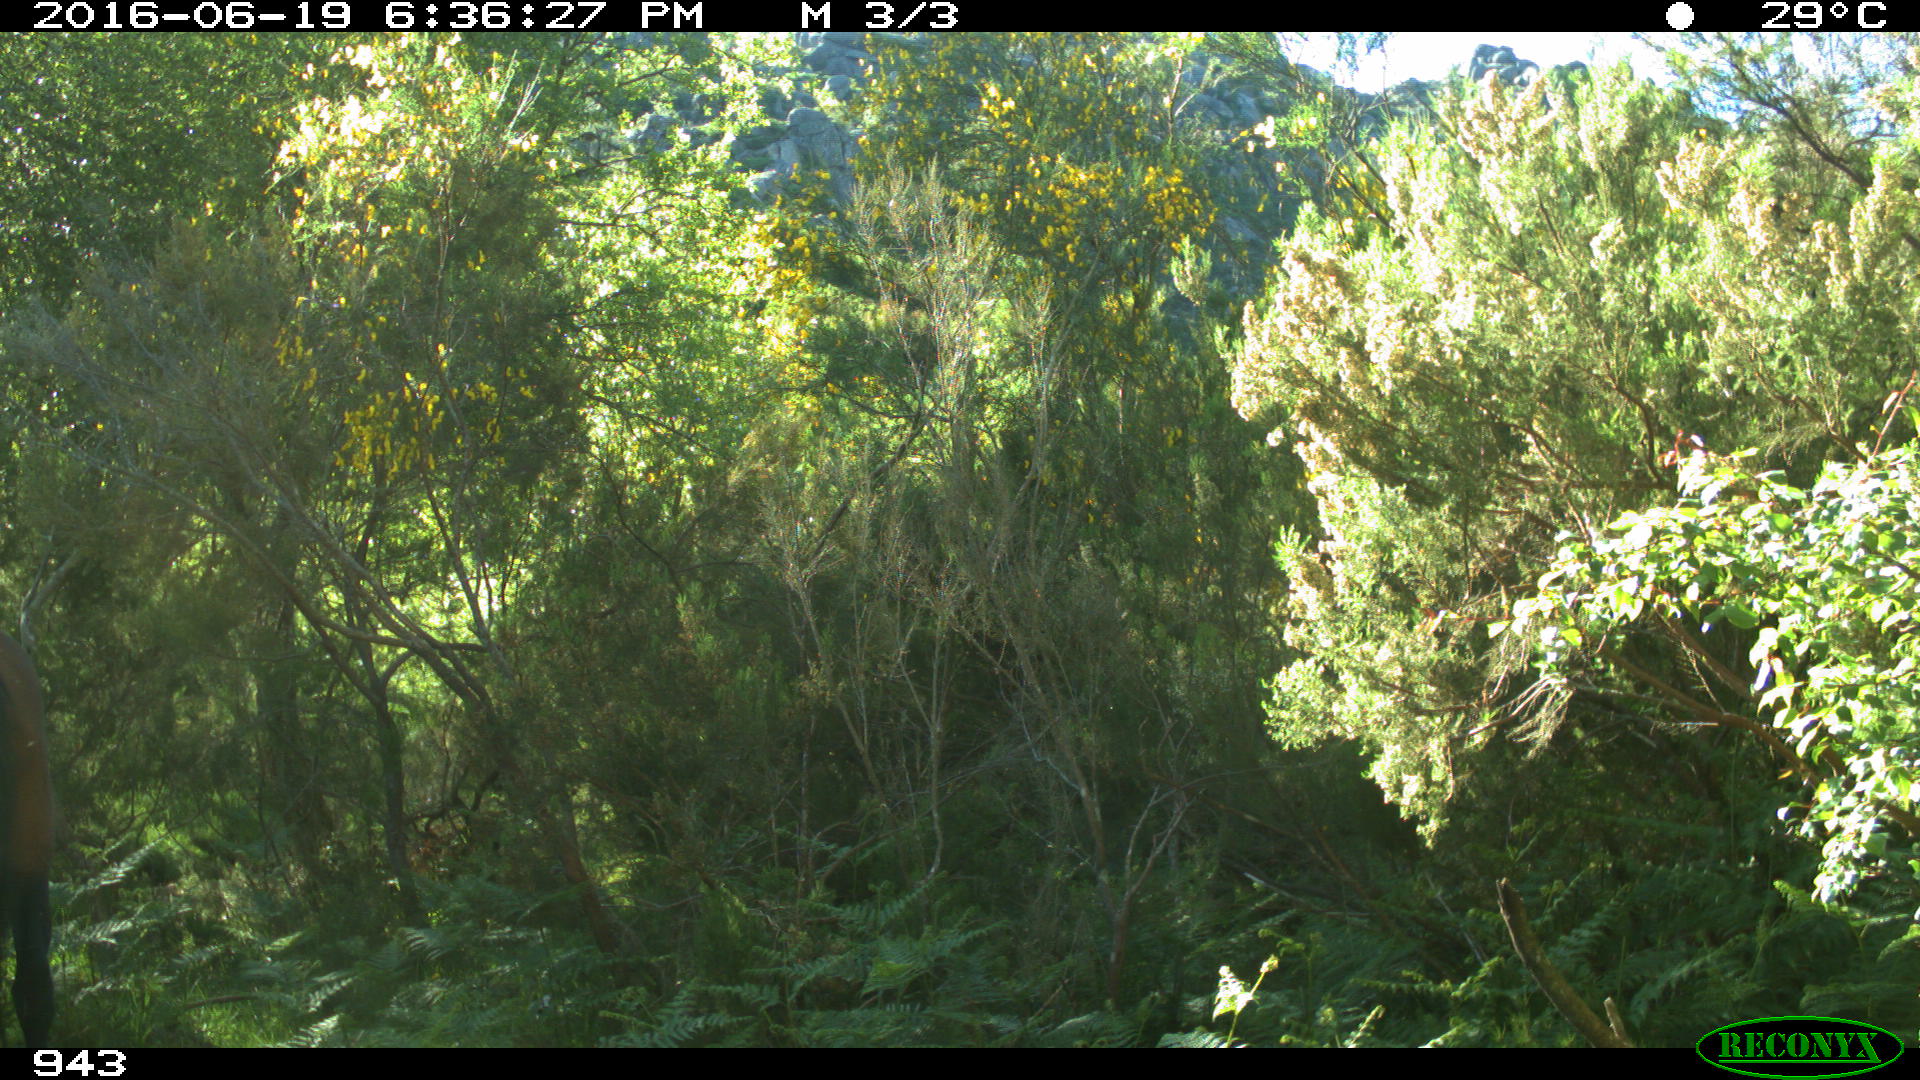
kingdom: Animalia
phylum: Chordata
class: Mammalia
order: Perissodactyla
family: Equidae
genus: Equus
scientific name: Equus caballus
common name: Horse
